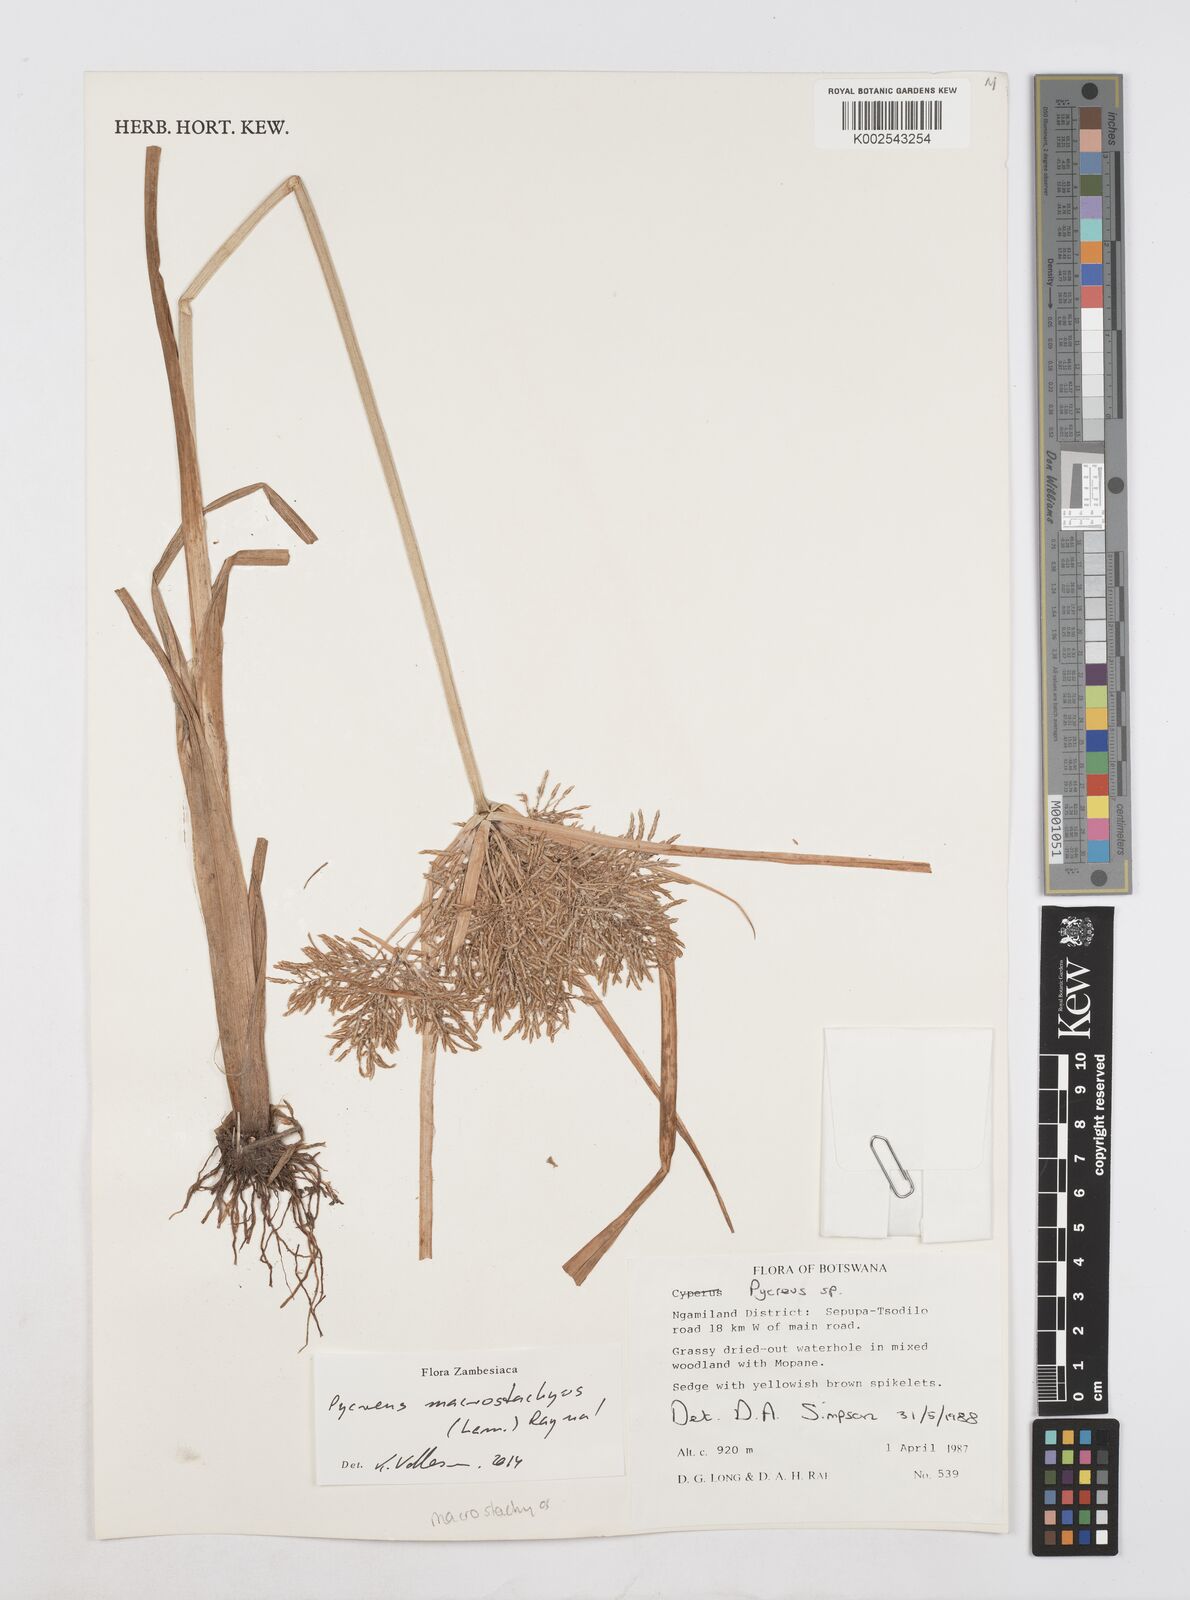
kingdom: Plantae
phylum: Tracheophyta
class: Liliopsida
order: Poales
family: Cyperaceae
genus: Cyperus
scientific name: Cyperus macrostachyos
